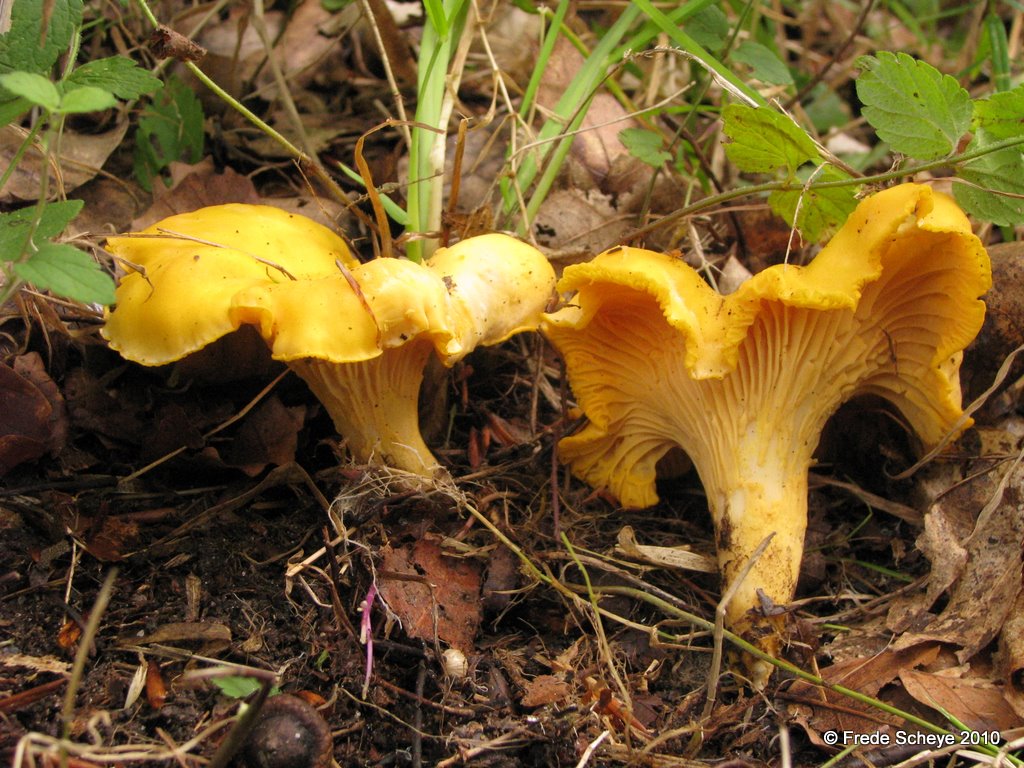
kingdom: Fungi
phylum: Basidiomycota
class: Agaricomycetes
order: Cantharellales
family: Hydnaceae
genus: Cantharellus
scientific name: Cantharellus cibarius
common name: almindelig kantarel
